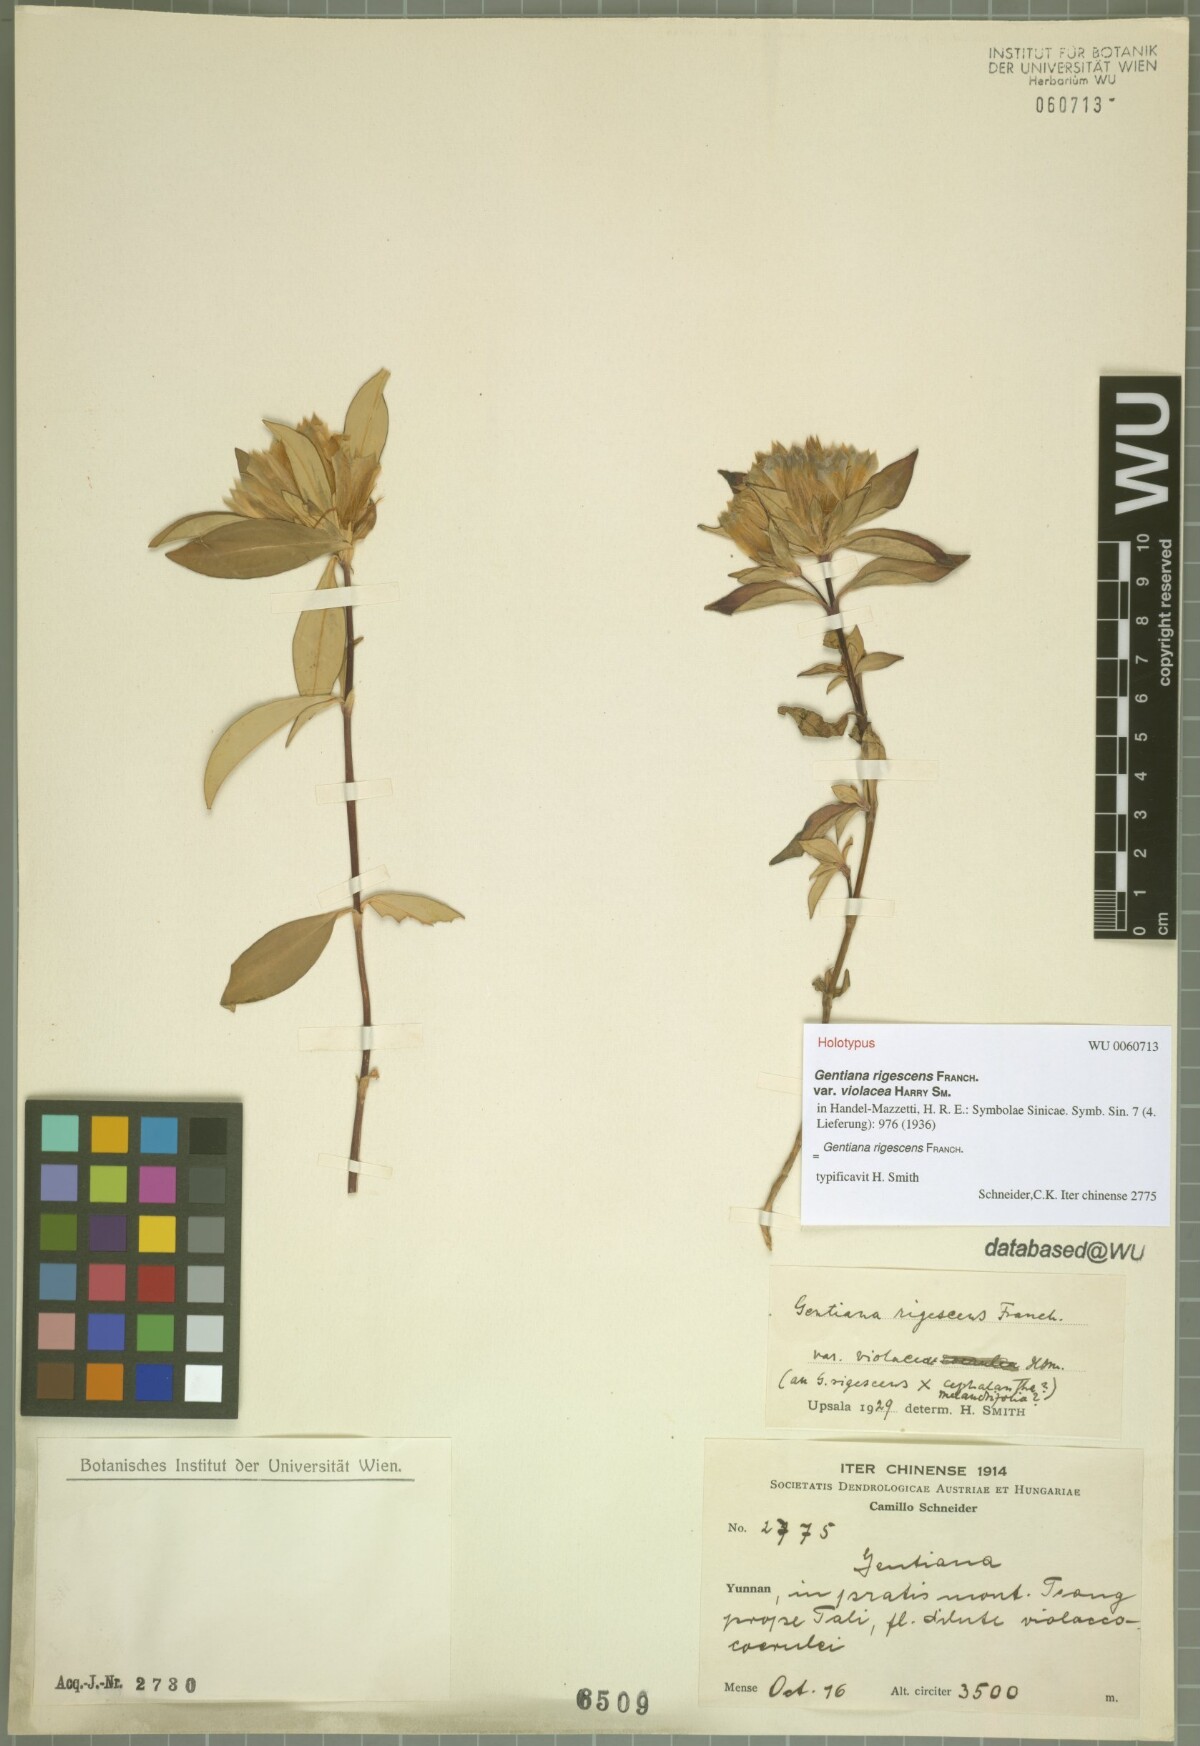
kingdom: Plantae
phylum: Tracheophyta
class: Magnoliopsida
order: Gentianales
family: Gentianaceae
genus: Gentiana
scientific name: Gentiana cephalantha
